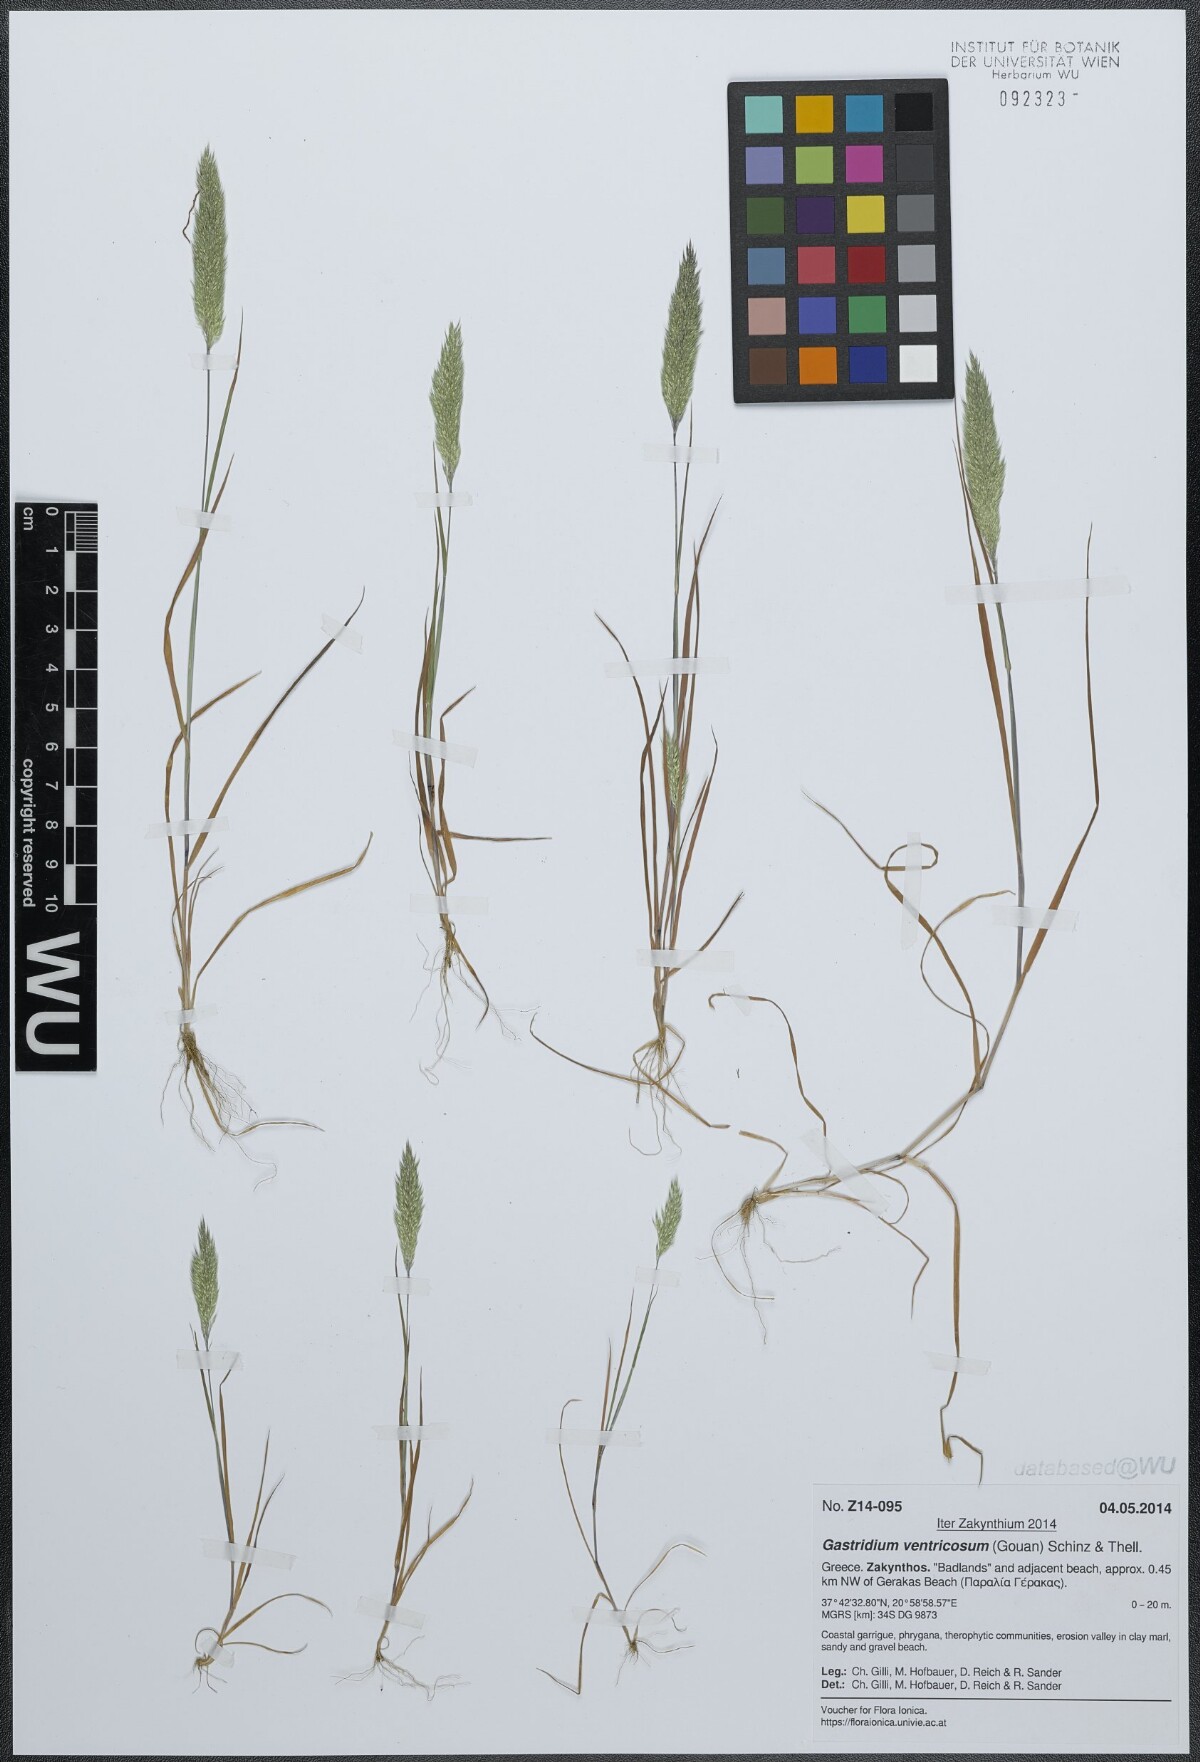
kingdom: Plantae
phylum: Tracheophyta
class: Liliopsida
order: Poales
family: Poaceae
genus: Gastridium
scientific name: Gastridium ventricosum
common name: Nit-grass
